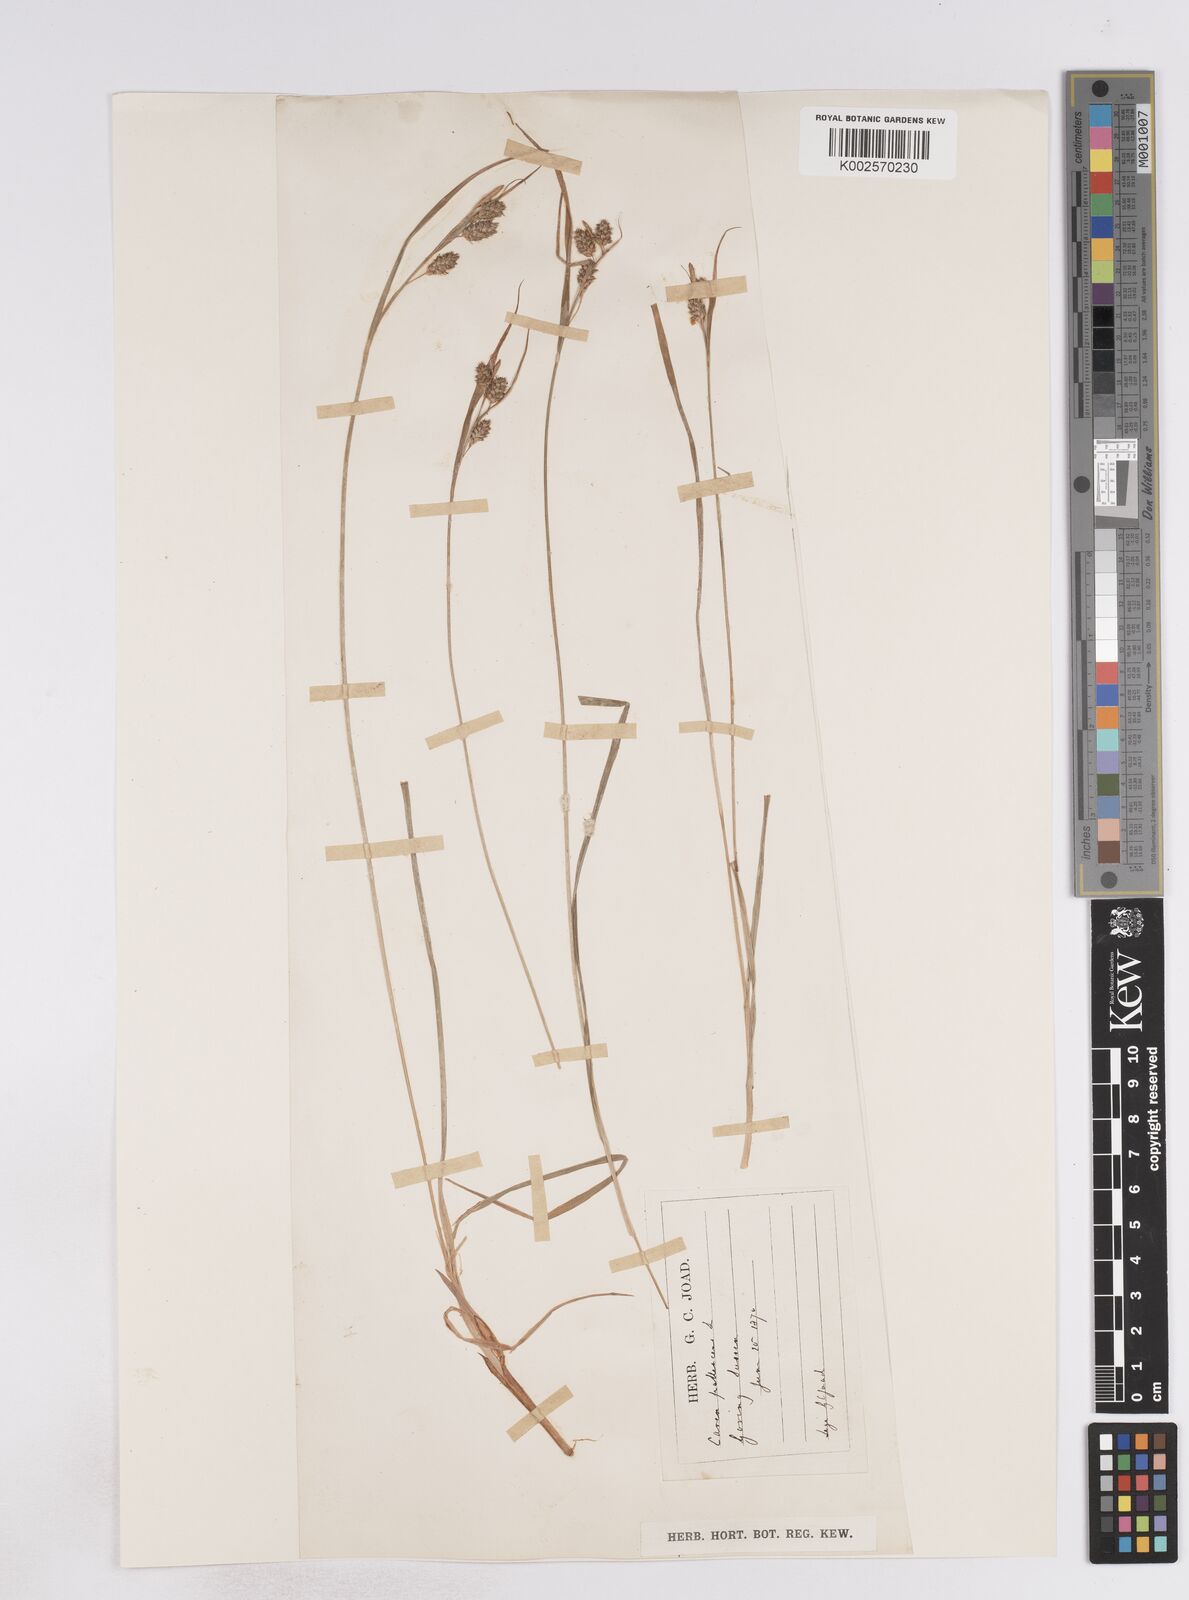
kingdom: Plantae
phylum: Tracheophyta
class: Liliopsida
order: Poales
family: Cyperaceae
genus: Carex
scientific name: Carex pallescens
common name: Pale sedge
